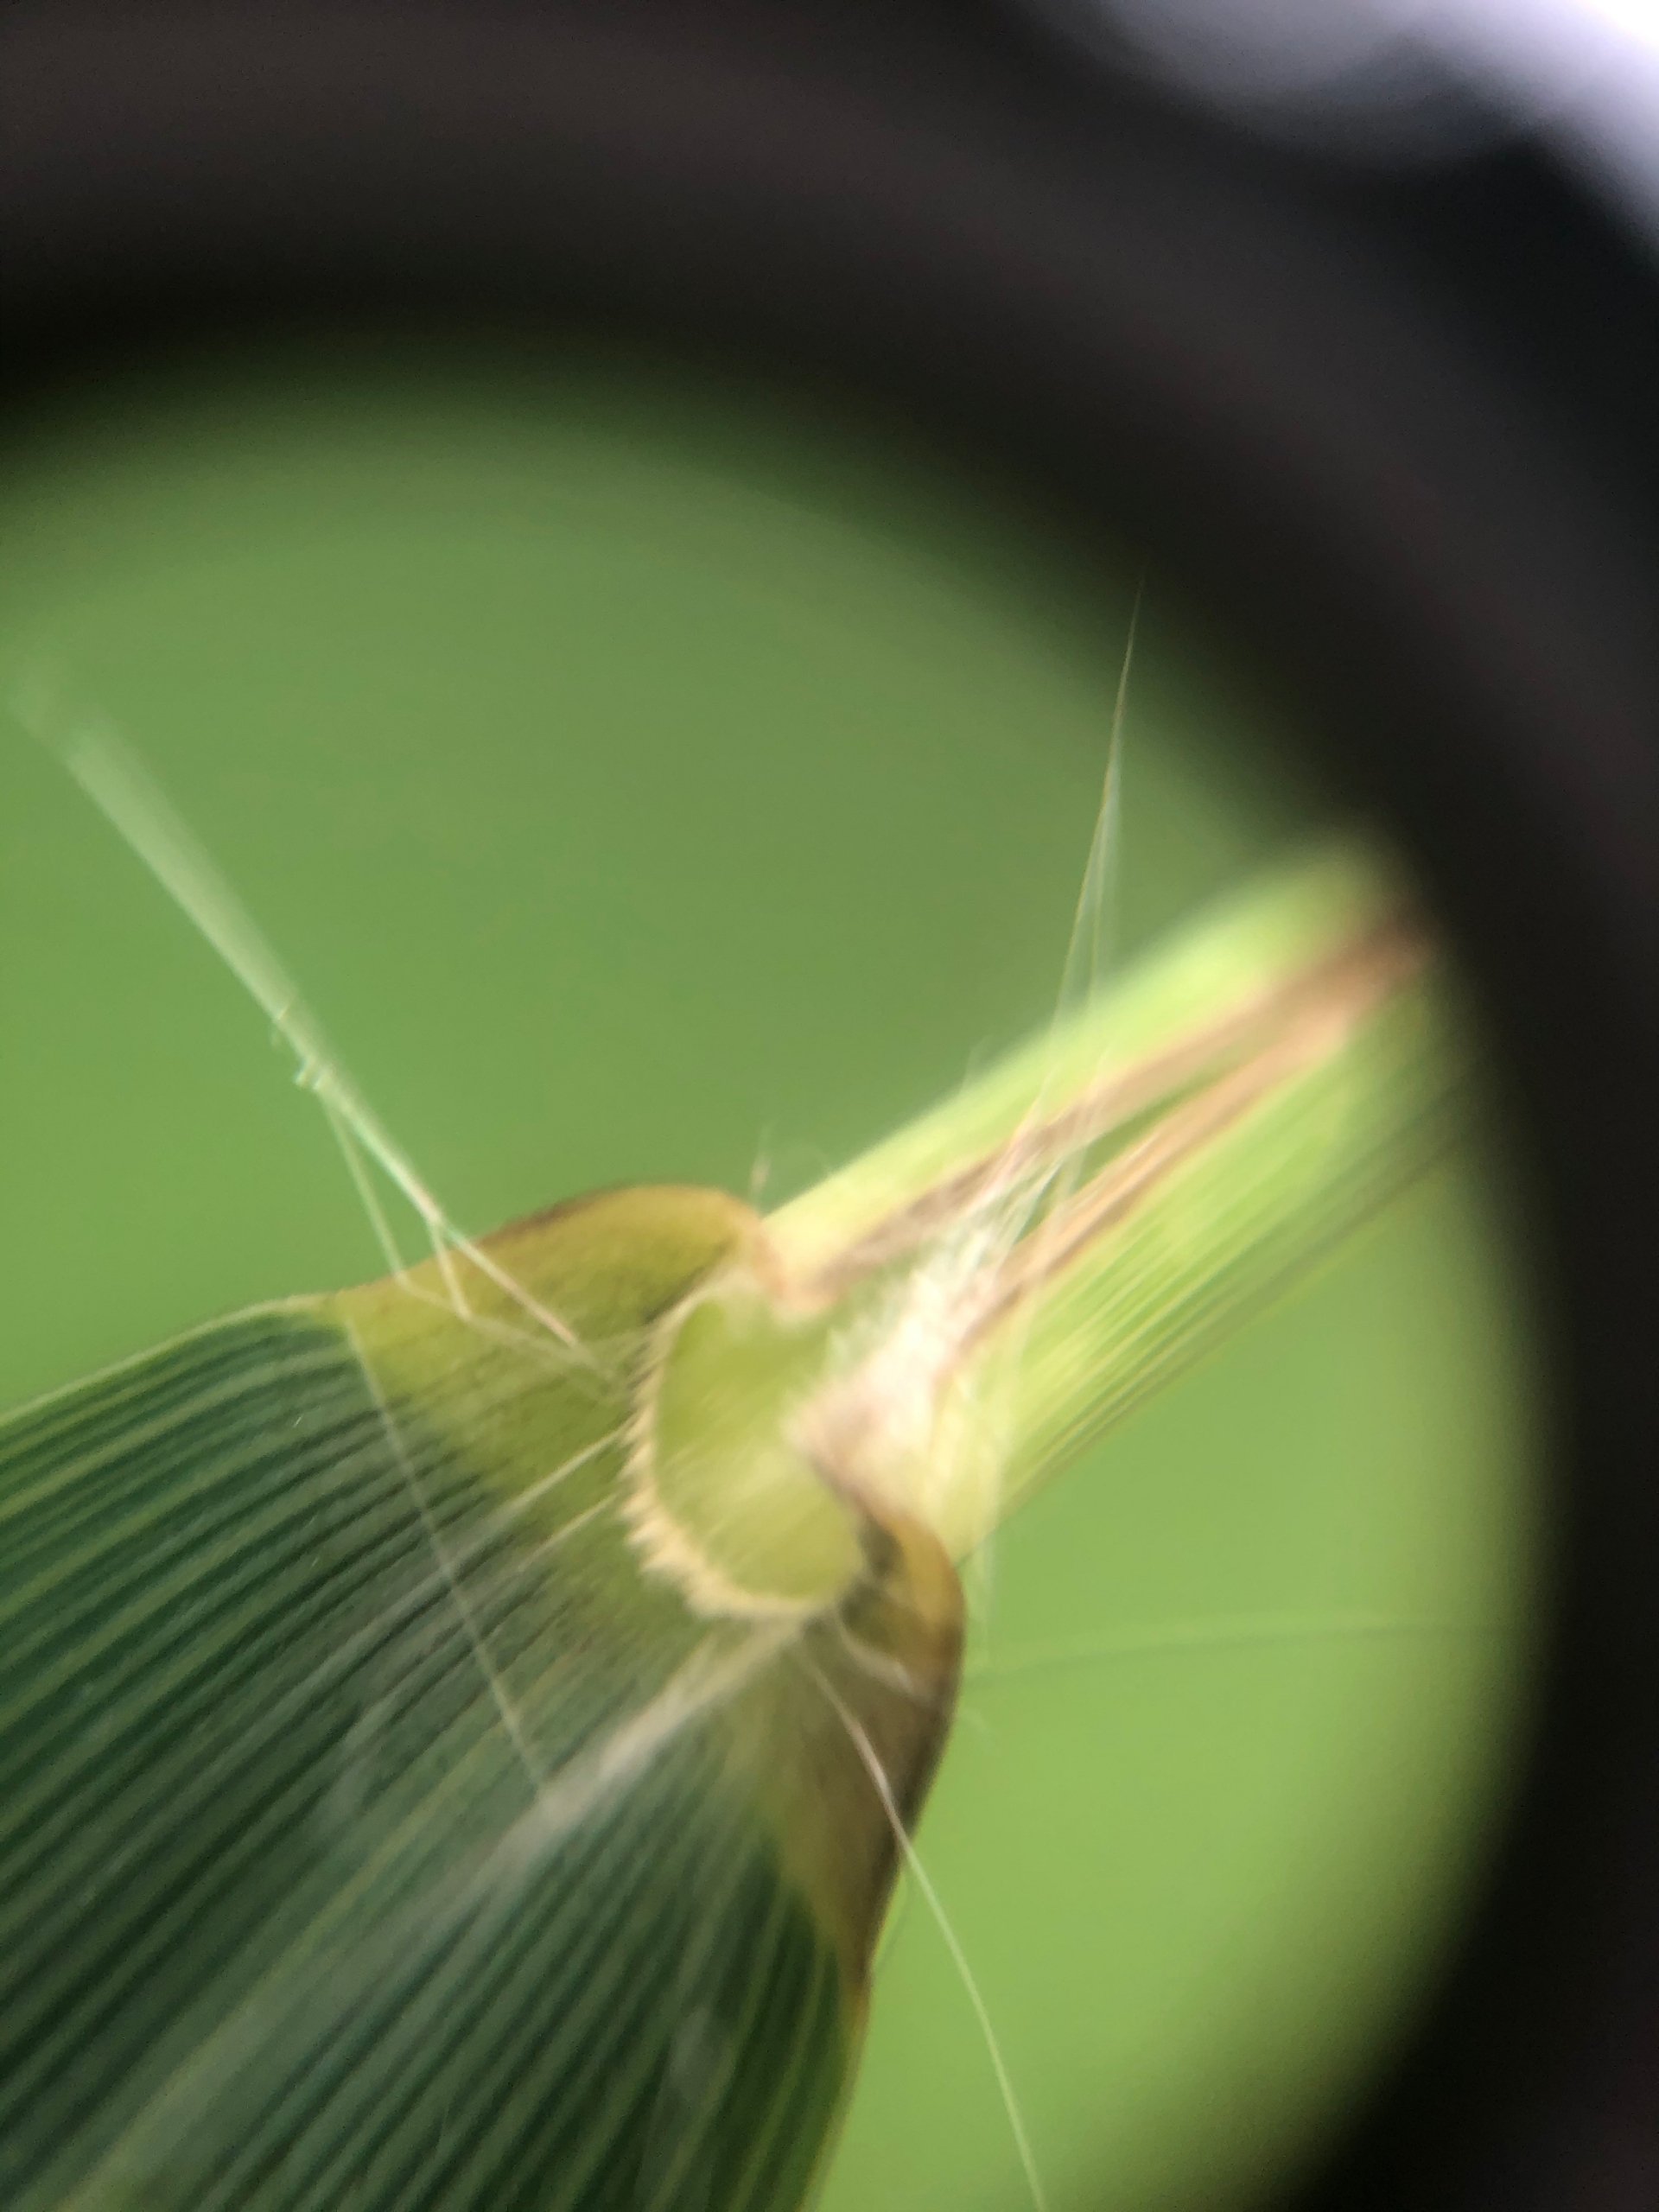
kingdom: Plantae
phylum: Tracheophyta
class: Liliopsida
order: Poales
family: Poaceae
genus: Phragmites
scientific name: Phragmites australis
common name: Tagrør
